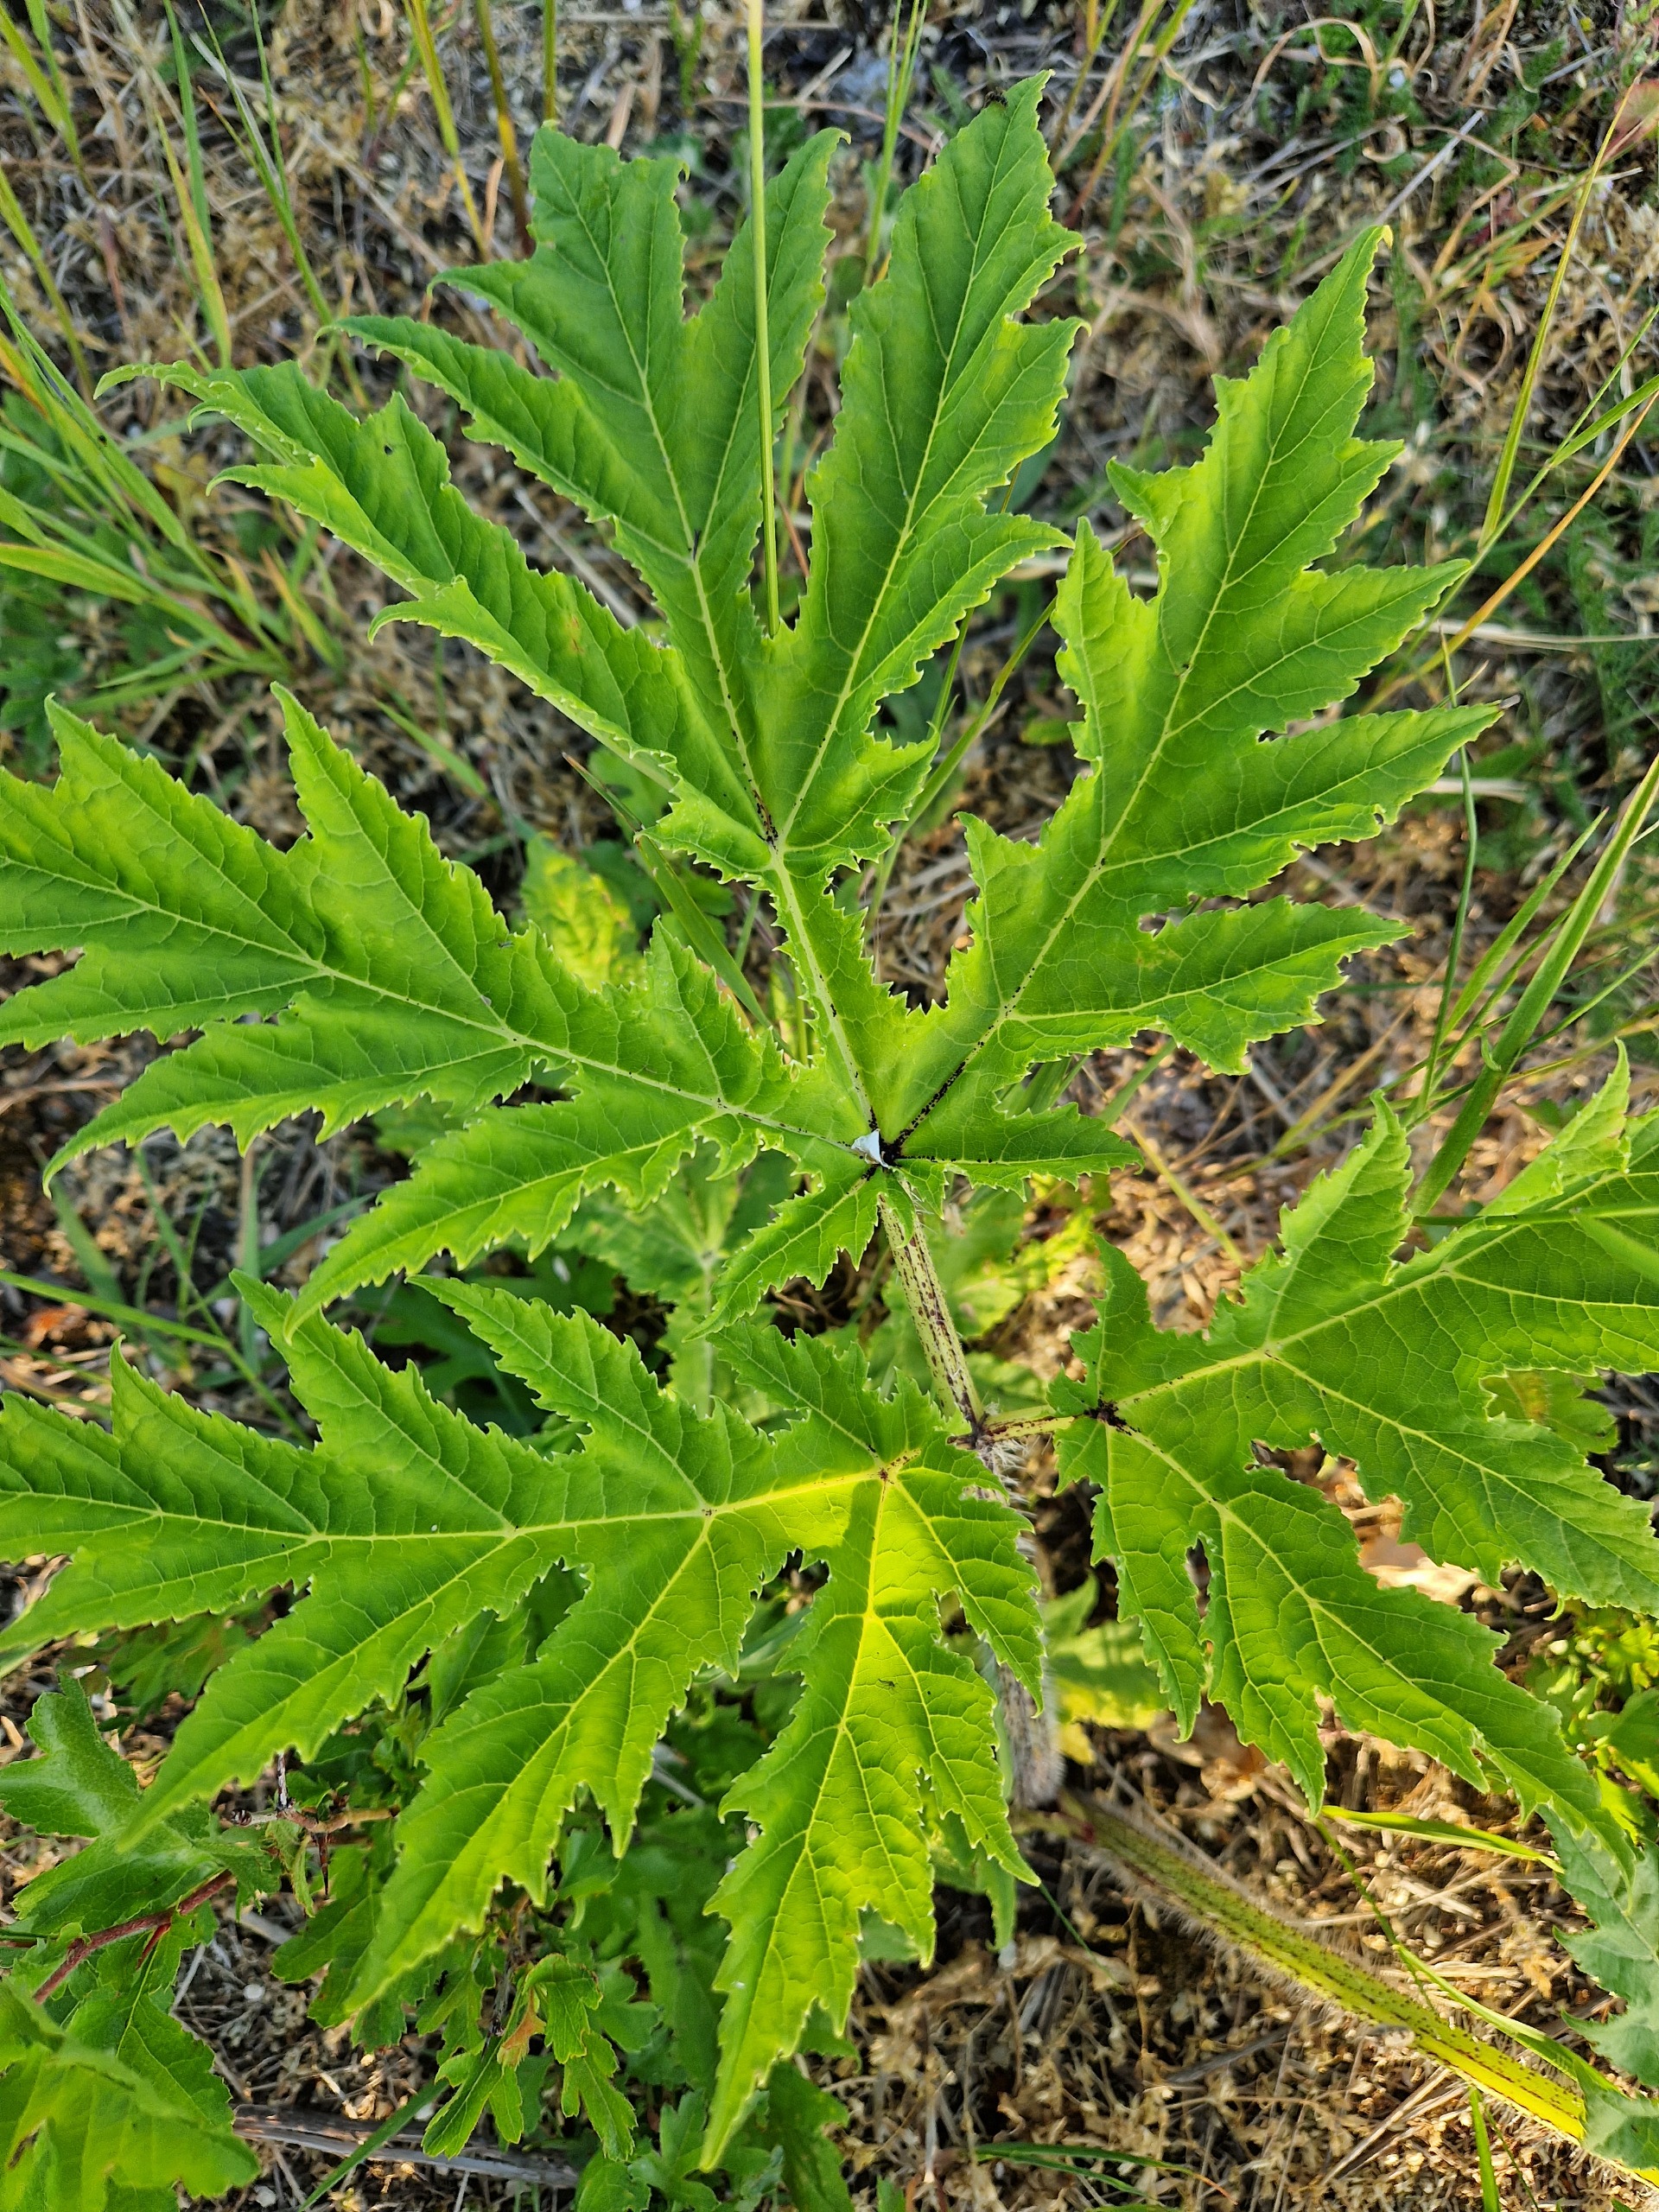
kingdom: Plantae
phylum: Tracheophyta
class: Magnoliopsida
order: Apiales
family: Apiaceae
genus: Heracleum
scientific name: Heracleum mantegazzianum
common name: Kæmpe-bjørneklo
